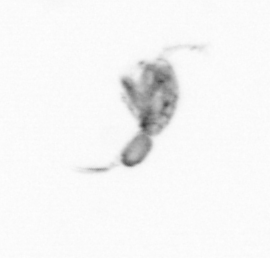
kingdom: Animalia
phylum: Arthropoda
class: Copepoda
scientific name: Copepoda
